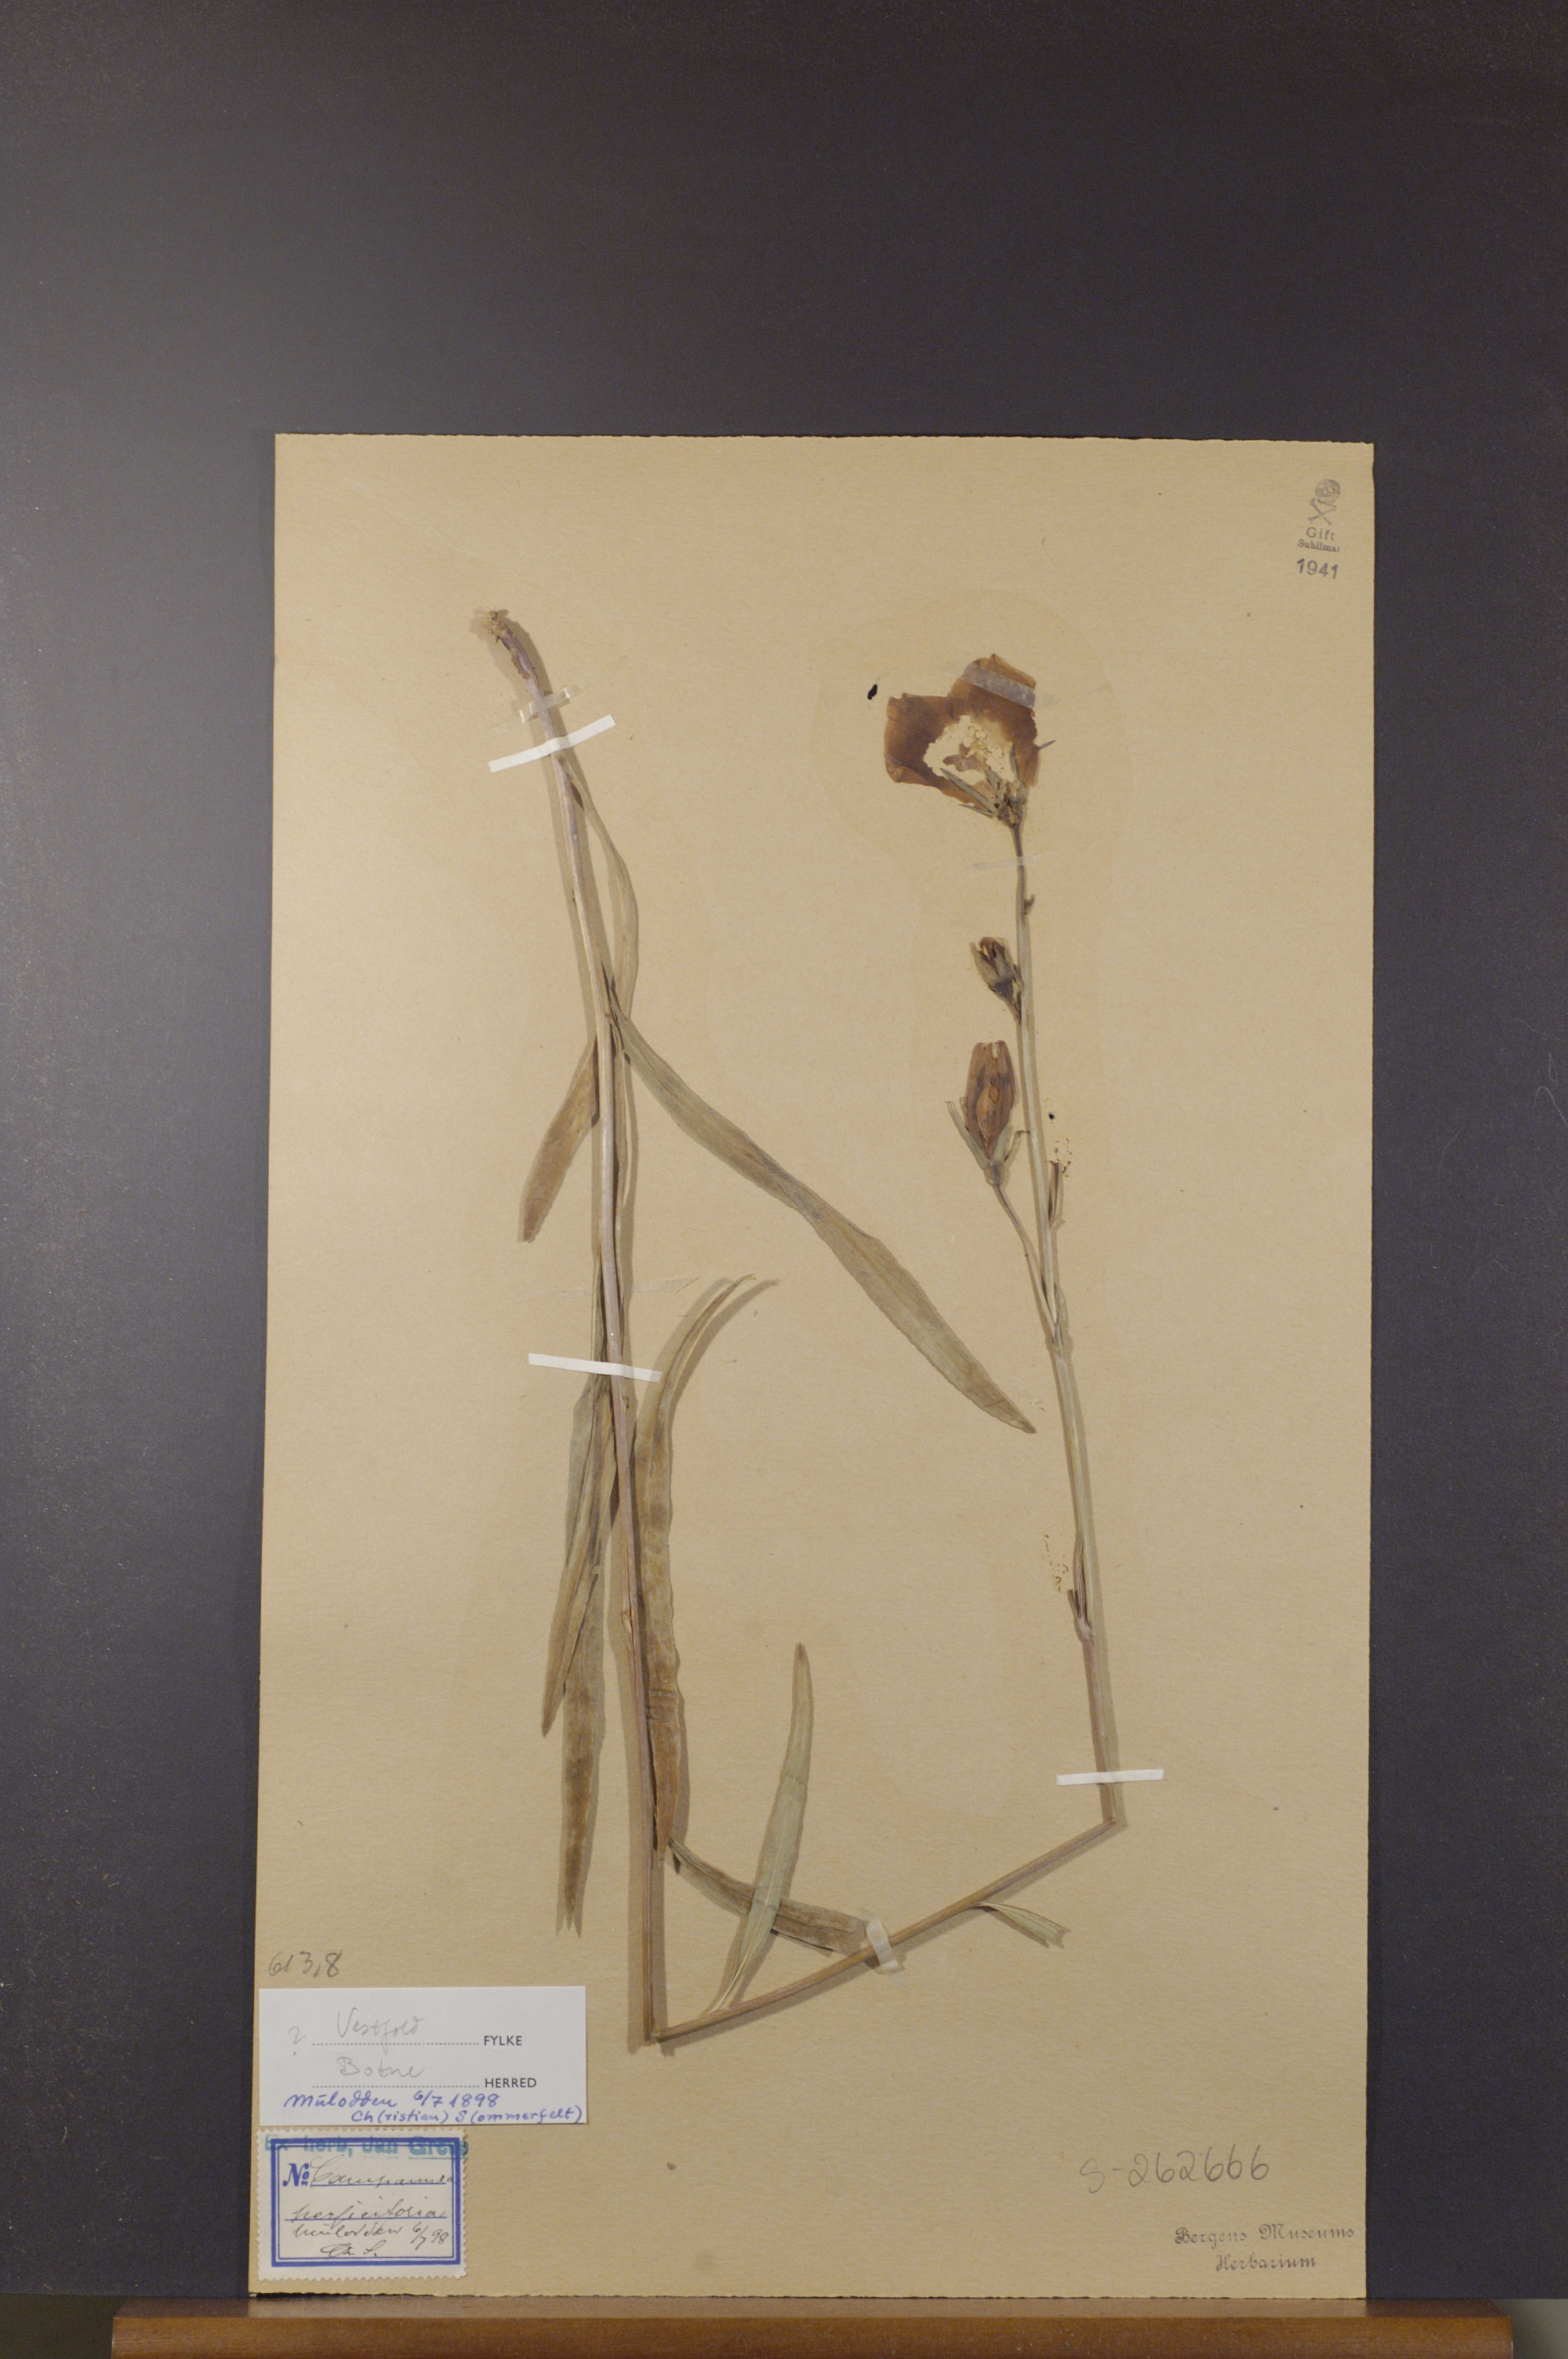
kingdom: Plantae
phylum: Tracheophyta
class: Magnoliopsida
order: Asterales
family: Campanulaceae
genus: Campanula
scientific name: Campanula persicifolia
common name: Peach-leaved bellflower
